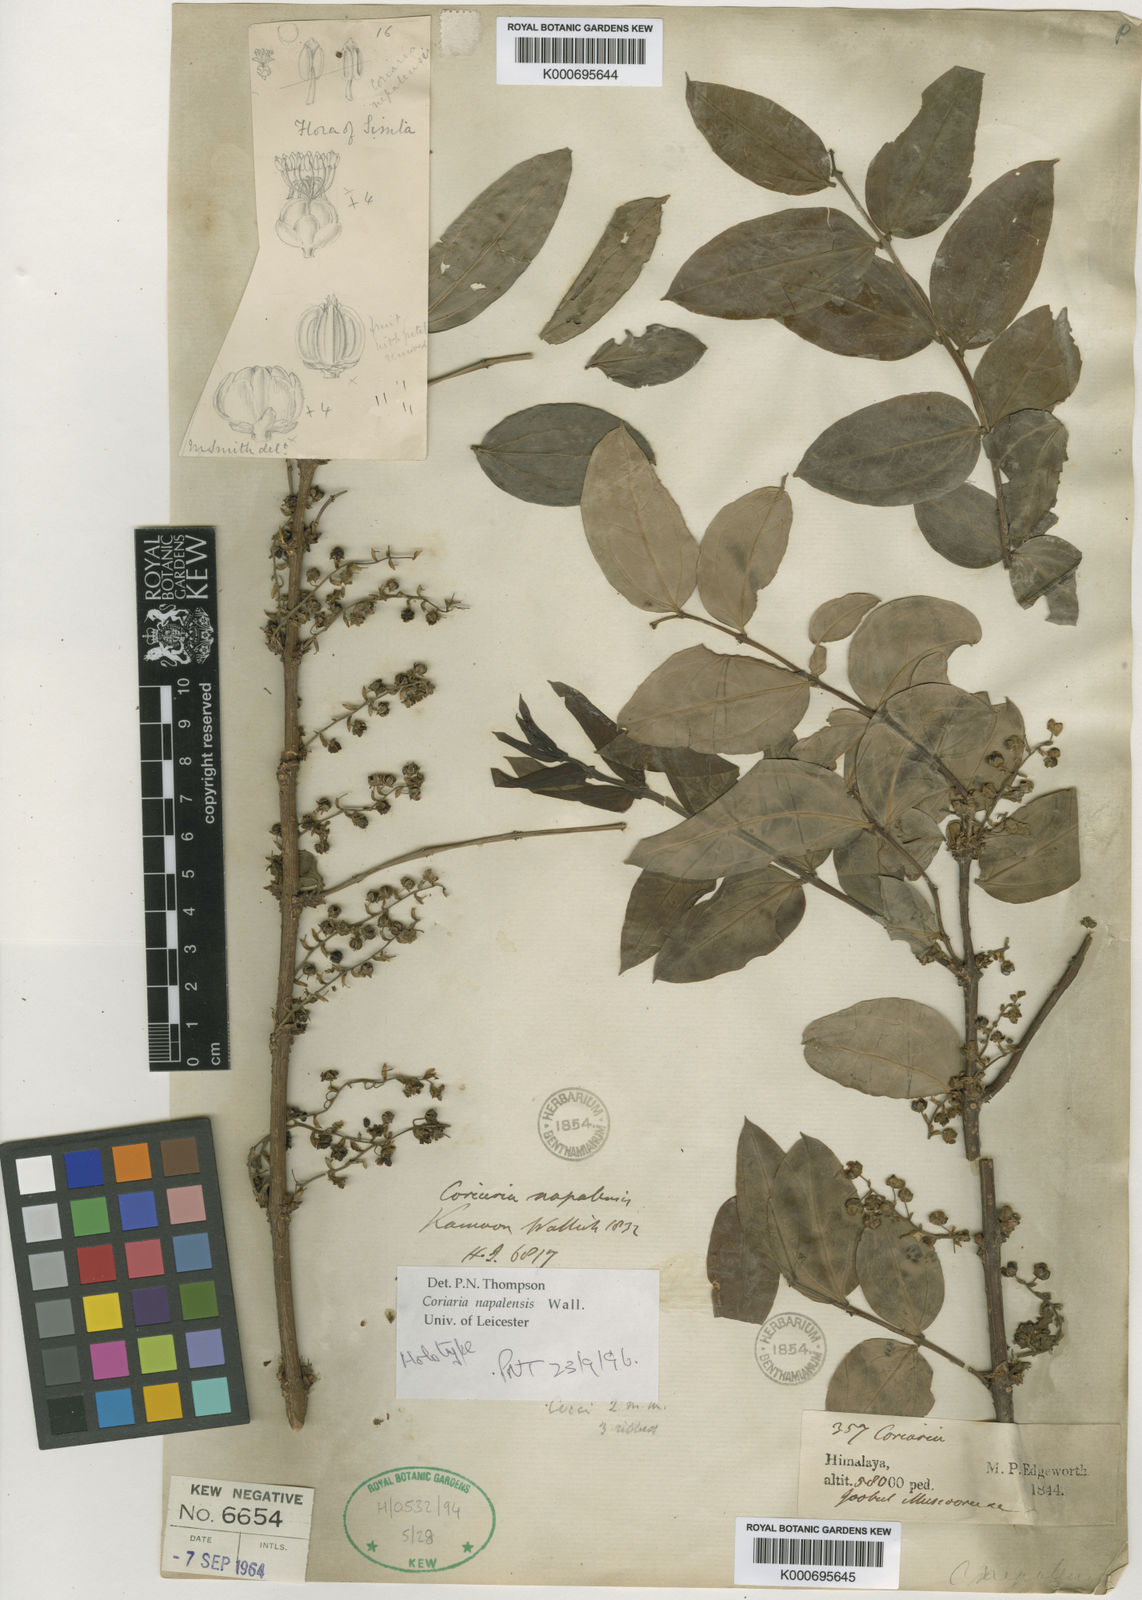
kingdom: Plantae
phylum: Tracheophyta
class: Magnoliopsida
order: Cucurbitales
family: Coriariaceae
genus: Coriaria
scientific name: Coriaria
